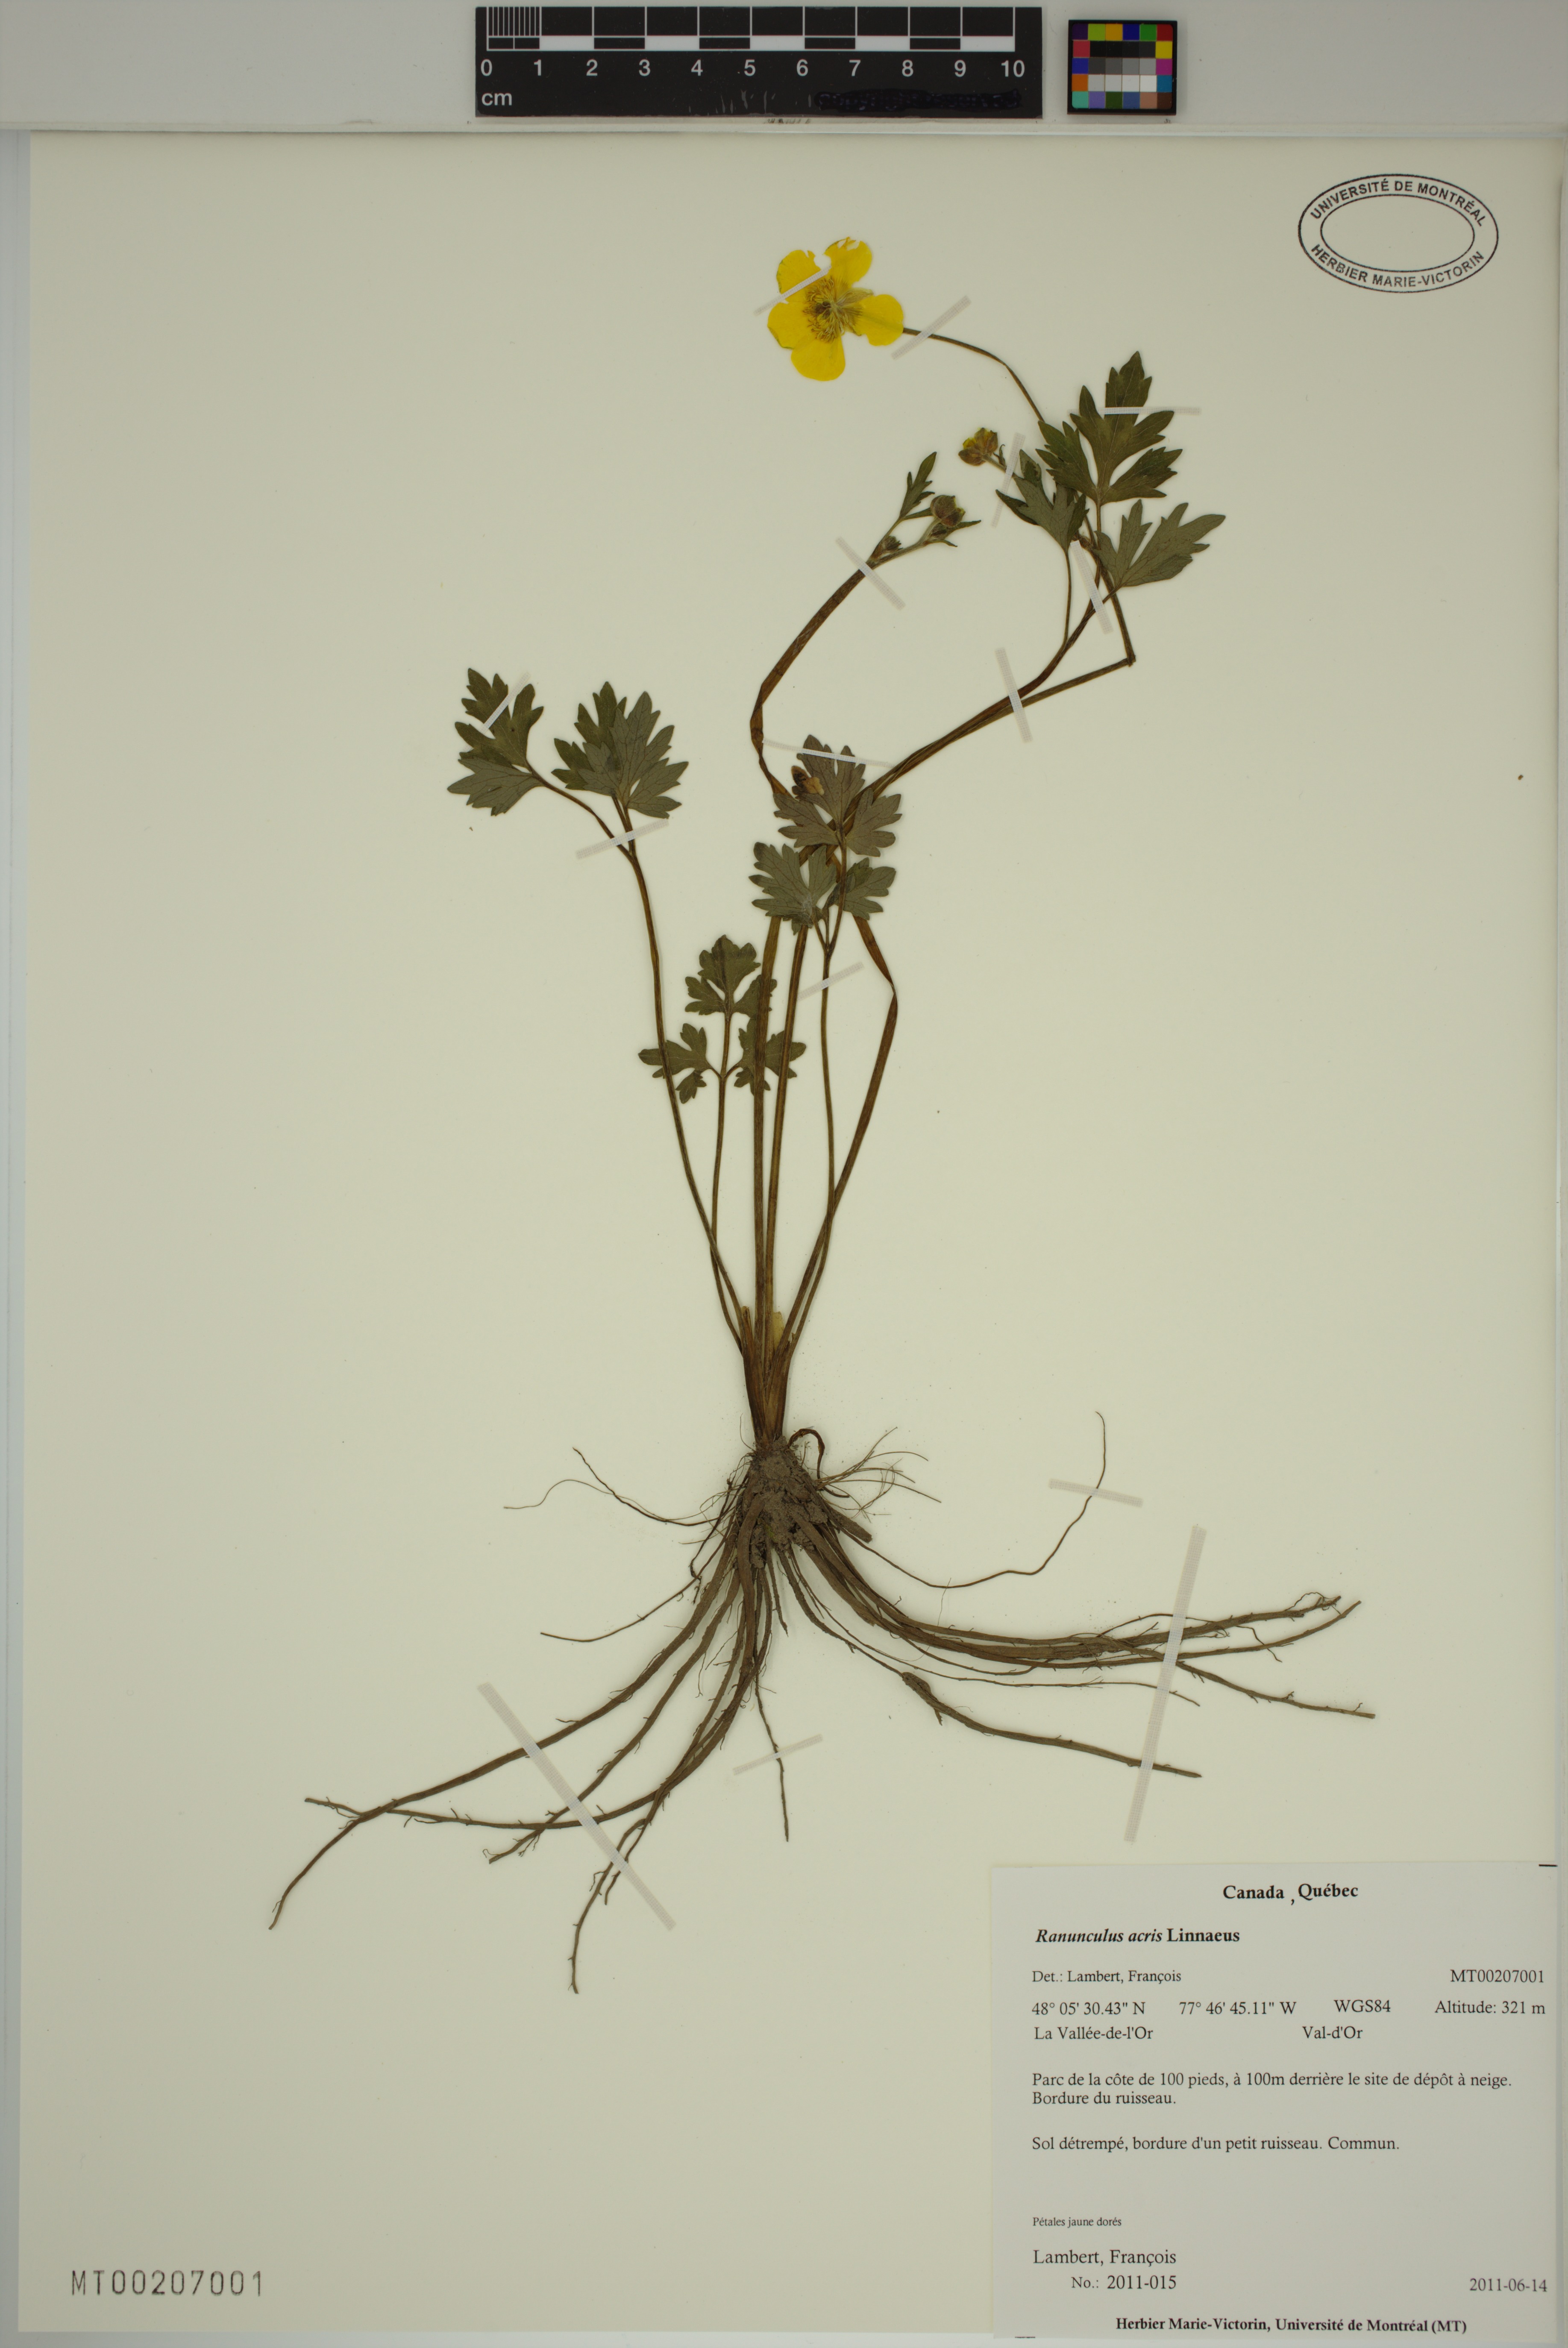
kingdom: Plantae
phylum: Tracheophyta
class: Magnoliopsida
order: Ranunculales
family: Ranunculaceae
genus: Ranunculus
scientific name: Ranunculus acris
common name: Meadow buttercup
